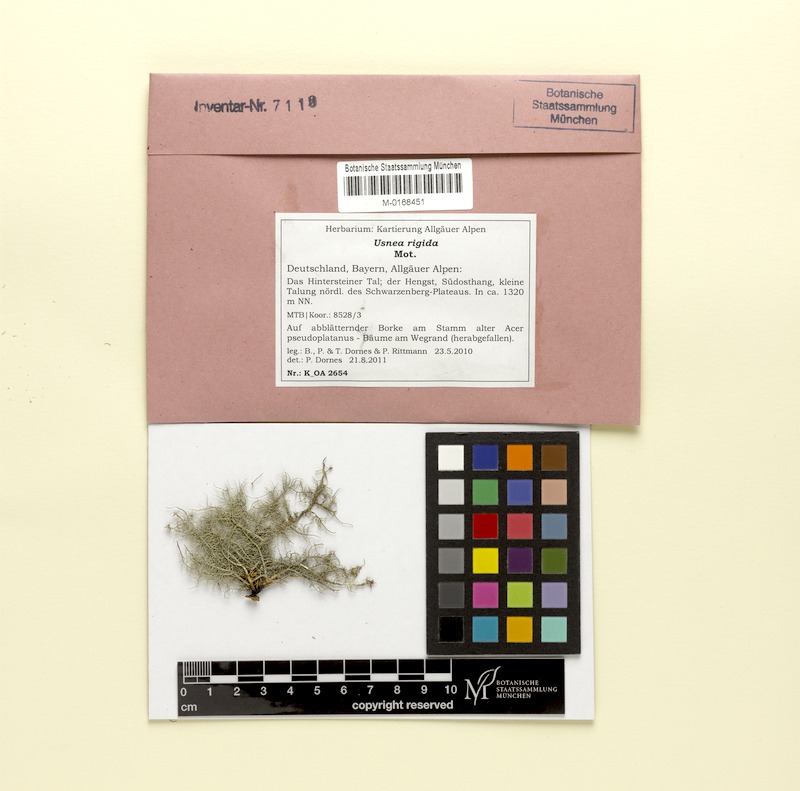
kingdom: Fungi
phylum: Ascomycota
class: Lecanoromycetes
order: Lecanorales
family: Parmeliaceae
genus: Usnea
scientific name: Usnea quasirigida
